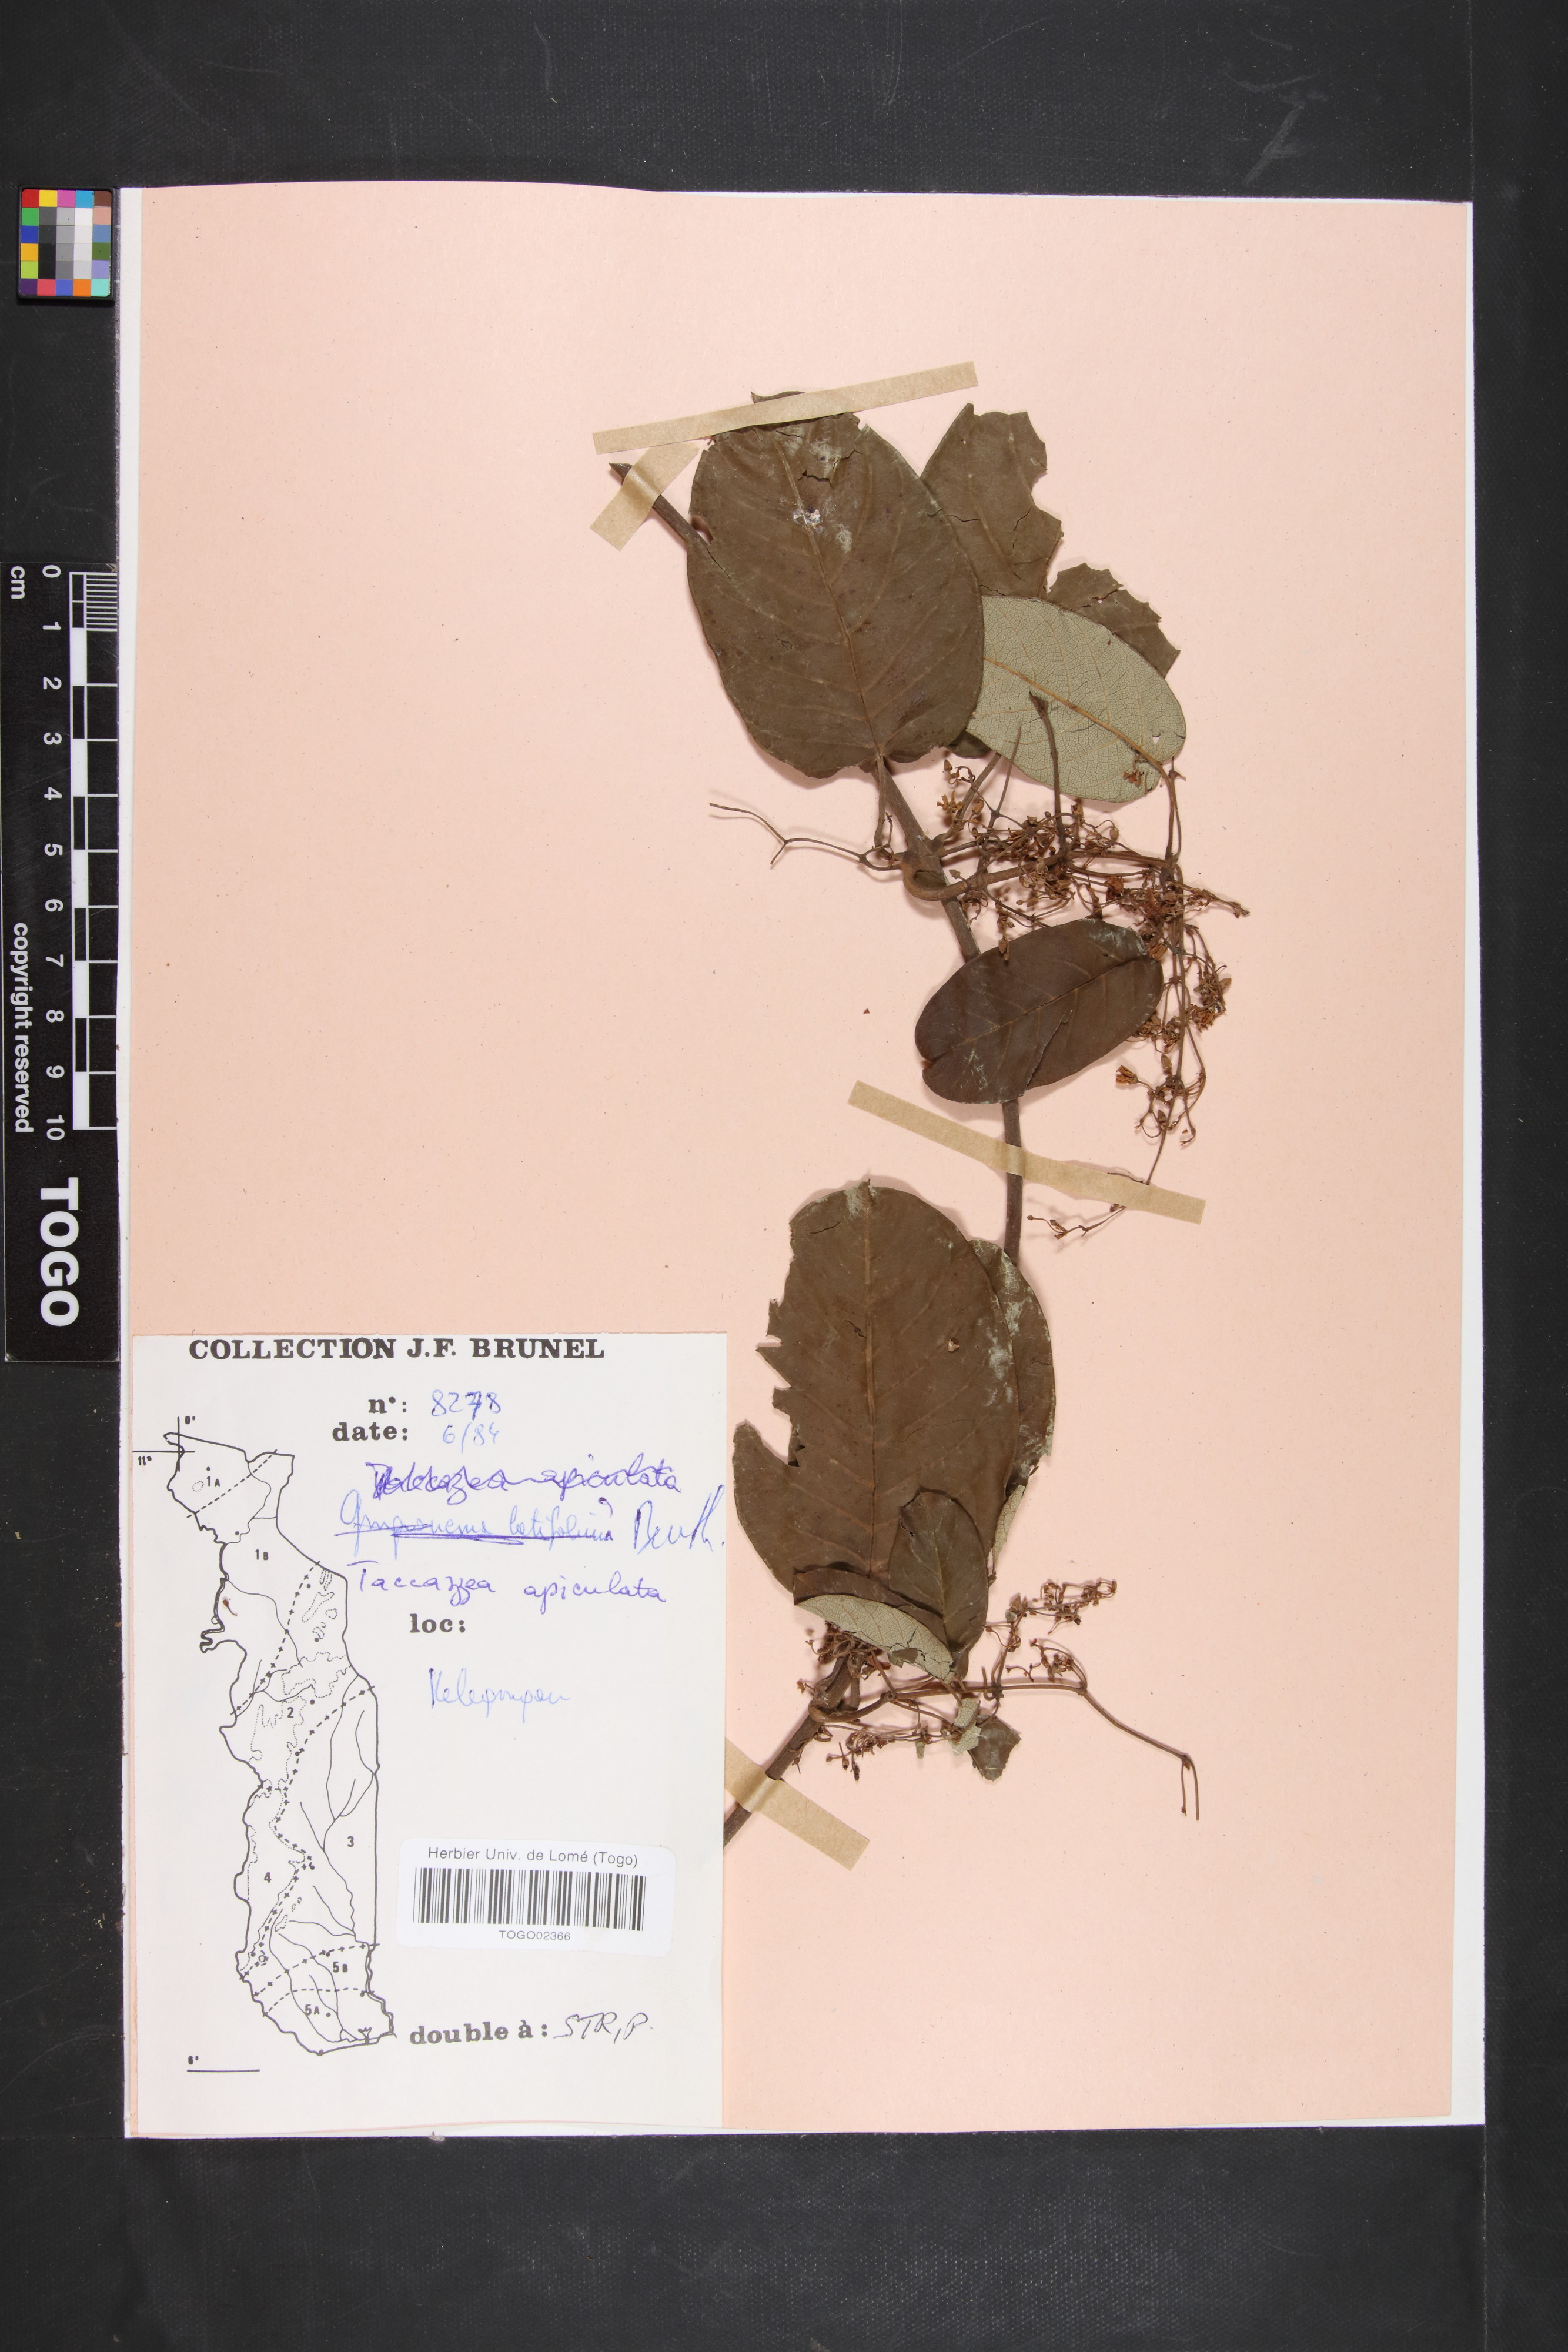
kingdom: Plantae
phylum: Tracheophyta
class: Magnoliopsida
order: Gentianales
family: Apocynaceae
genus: Tacazzea
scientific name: Tacazzea apiculata
